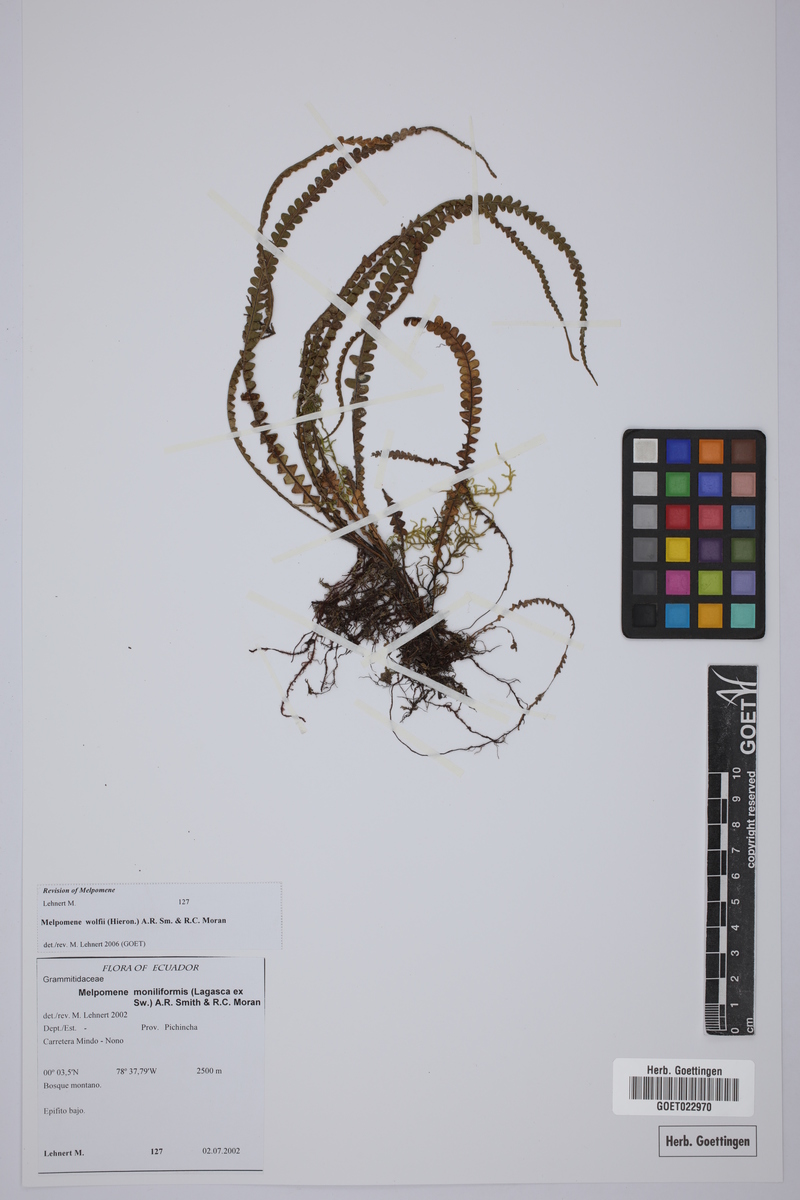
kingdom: Plantae
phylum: Tracheophyta
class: Polypodiopsida
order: Polypodiales
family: Polypodiaceae
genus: Melpomene
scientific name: Melpomene wolfii
